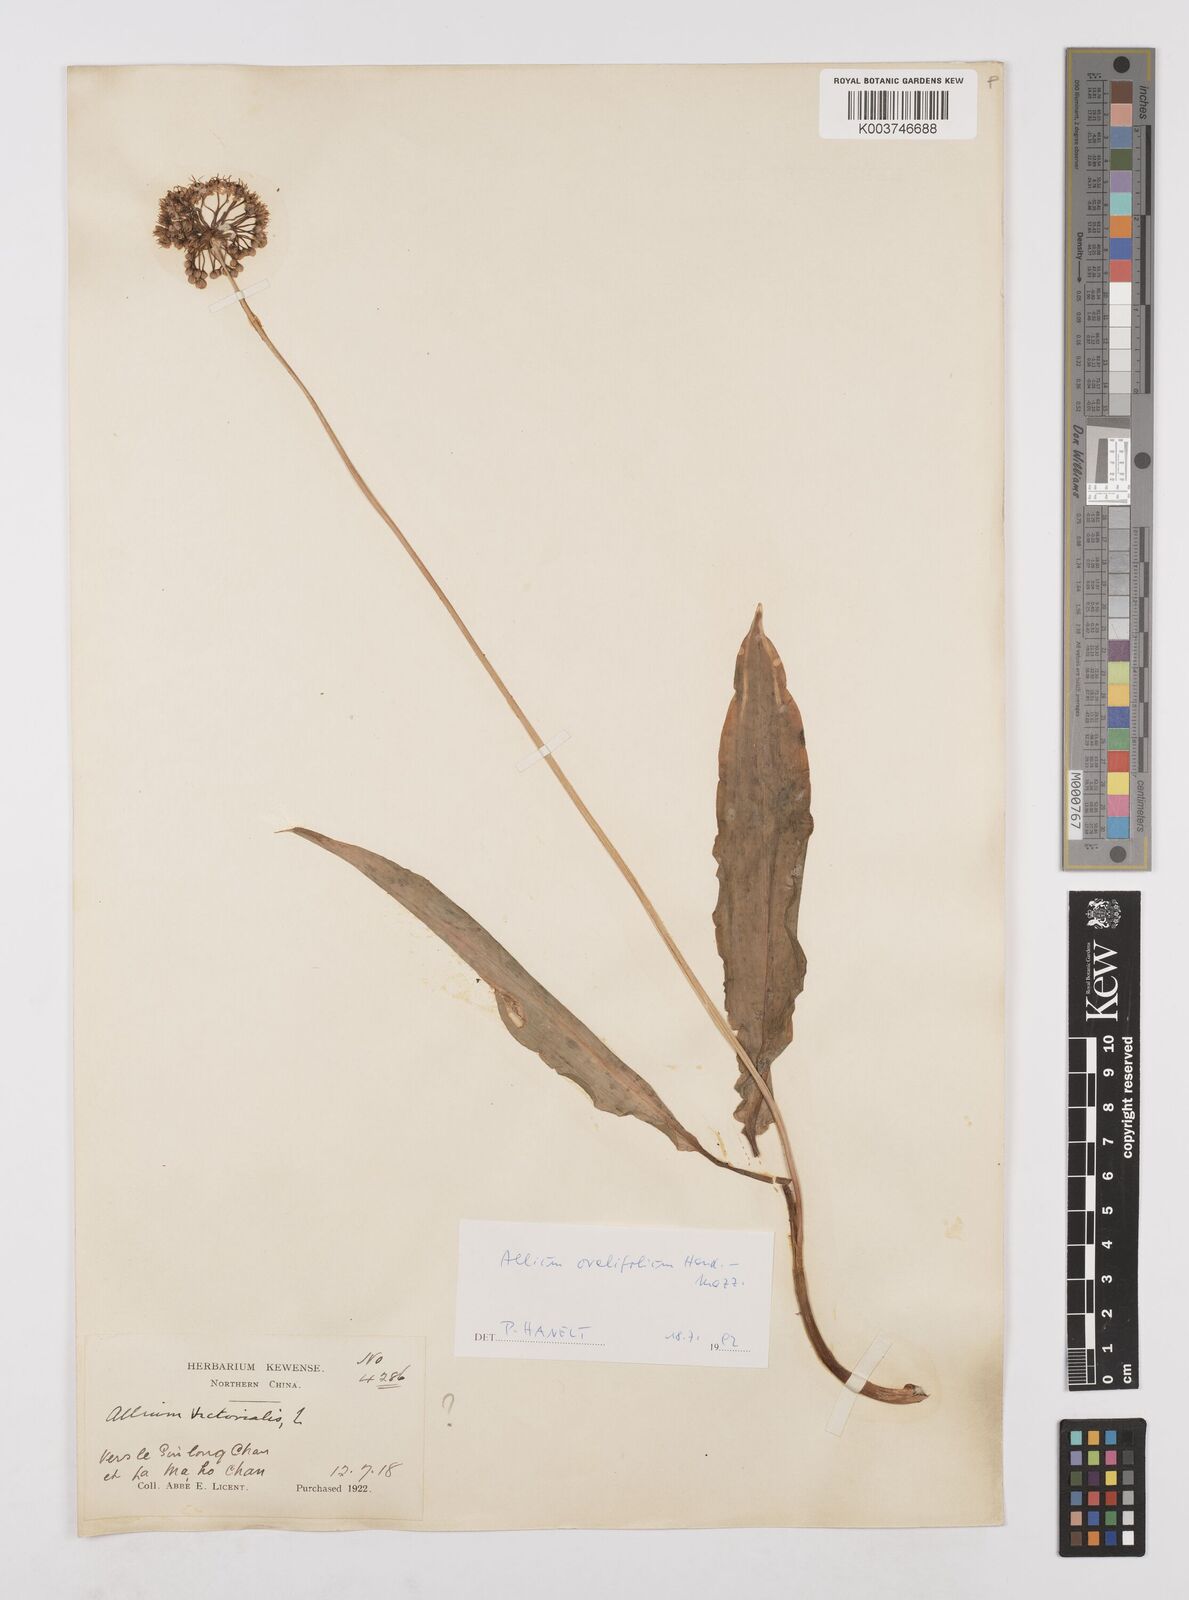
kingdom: Plantae
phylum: Tracheophyta
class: Liliopsida
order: Asparagales
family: Amaryllidaceae
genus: Allium
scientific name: Allium ovalifolium
